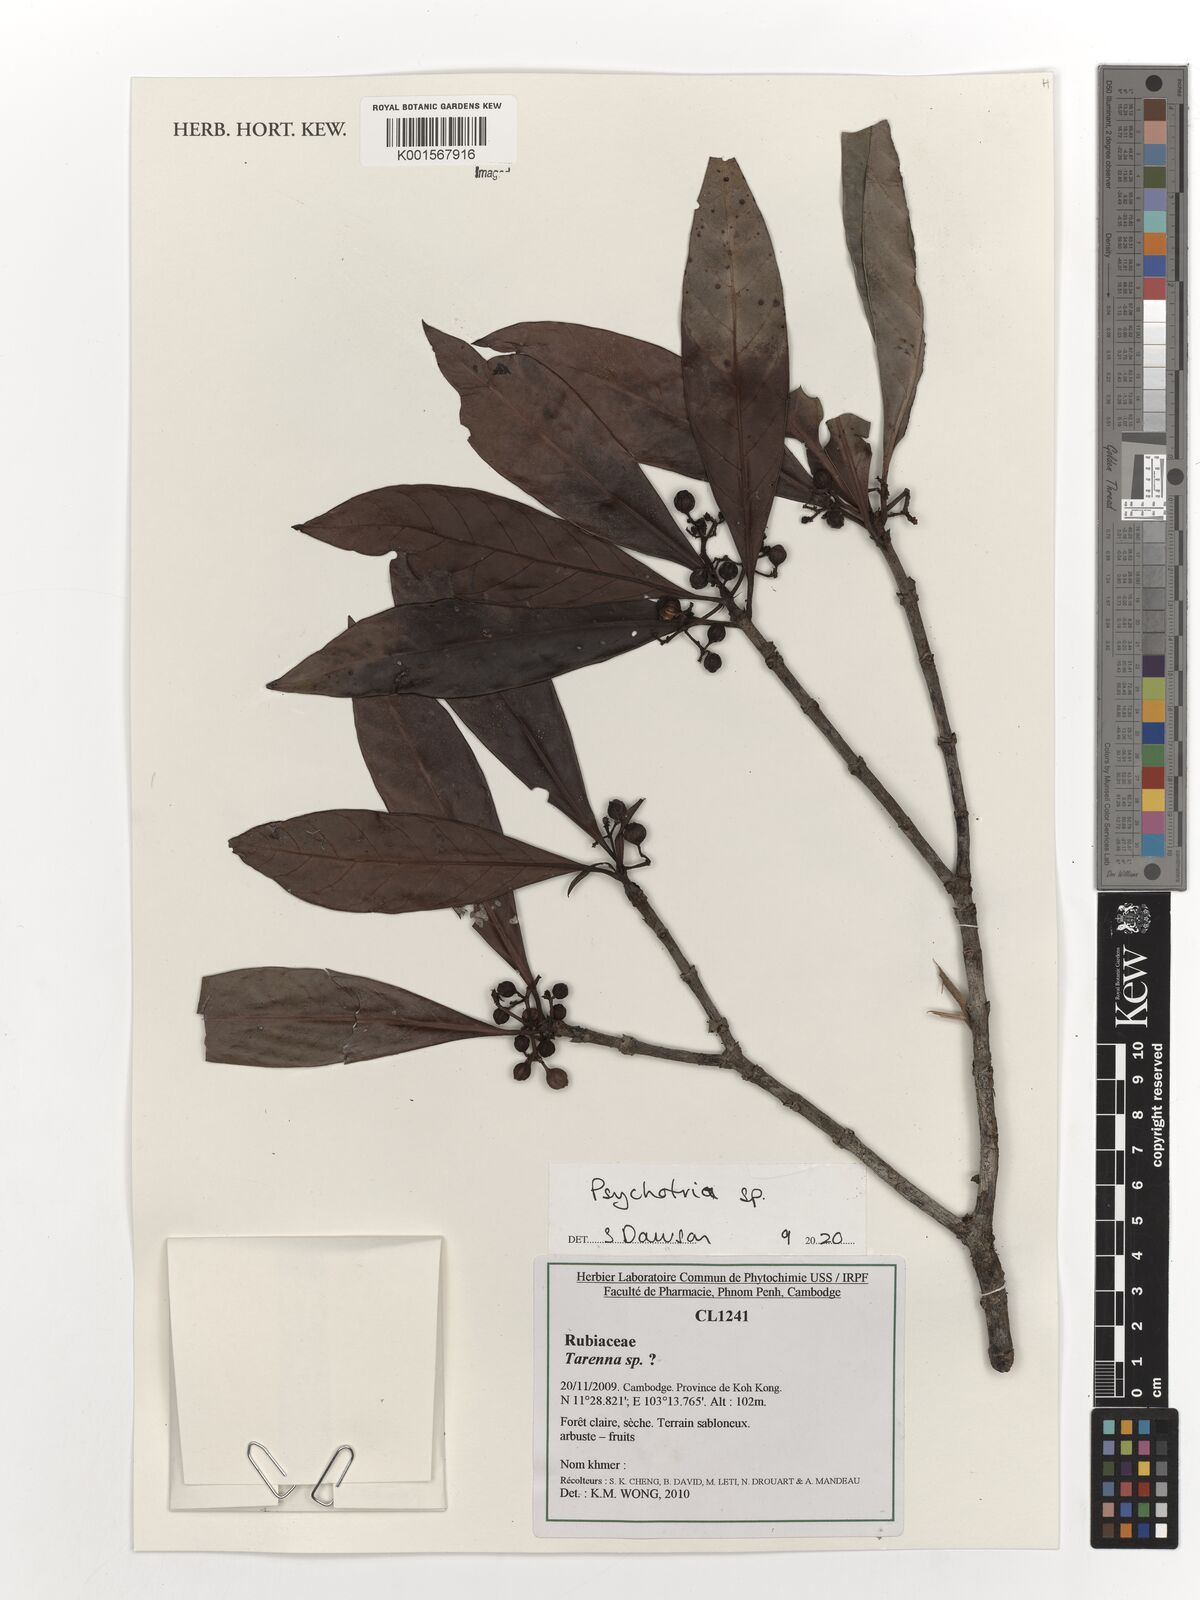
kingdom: Plantae
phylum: Tracheophyta
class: Magnoliopsida
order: Gentianales
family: Rubiaceae
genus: Psychotria
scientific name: Psychotria
